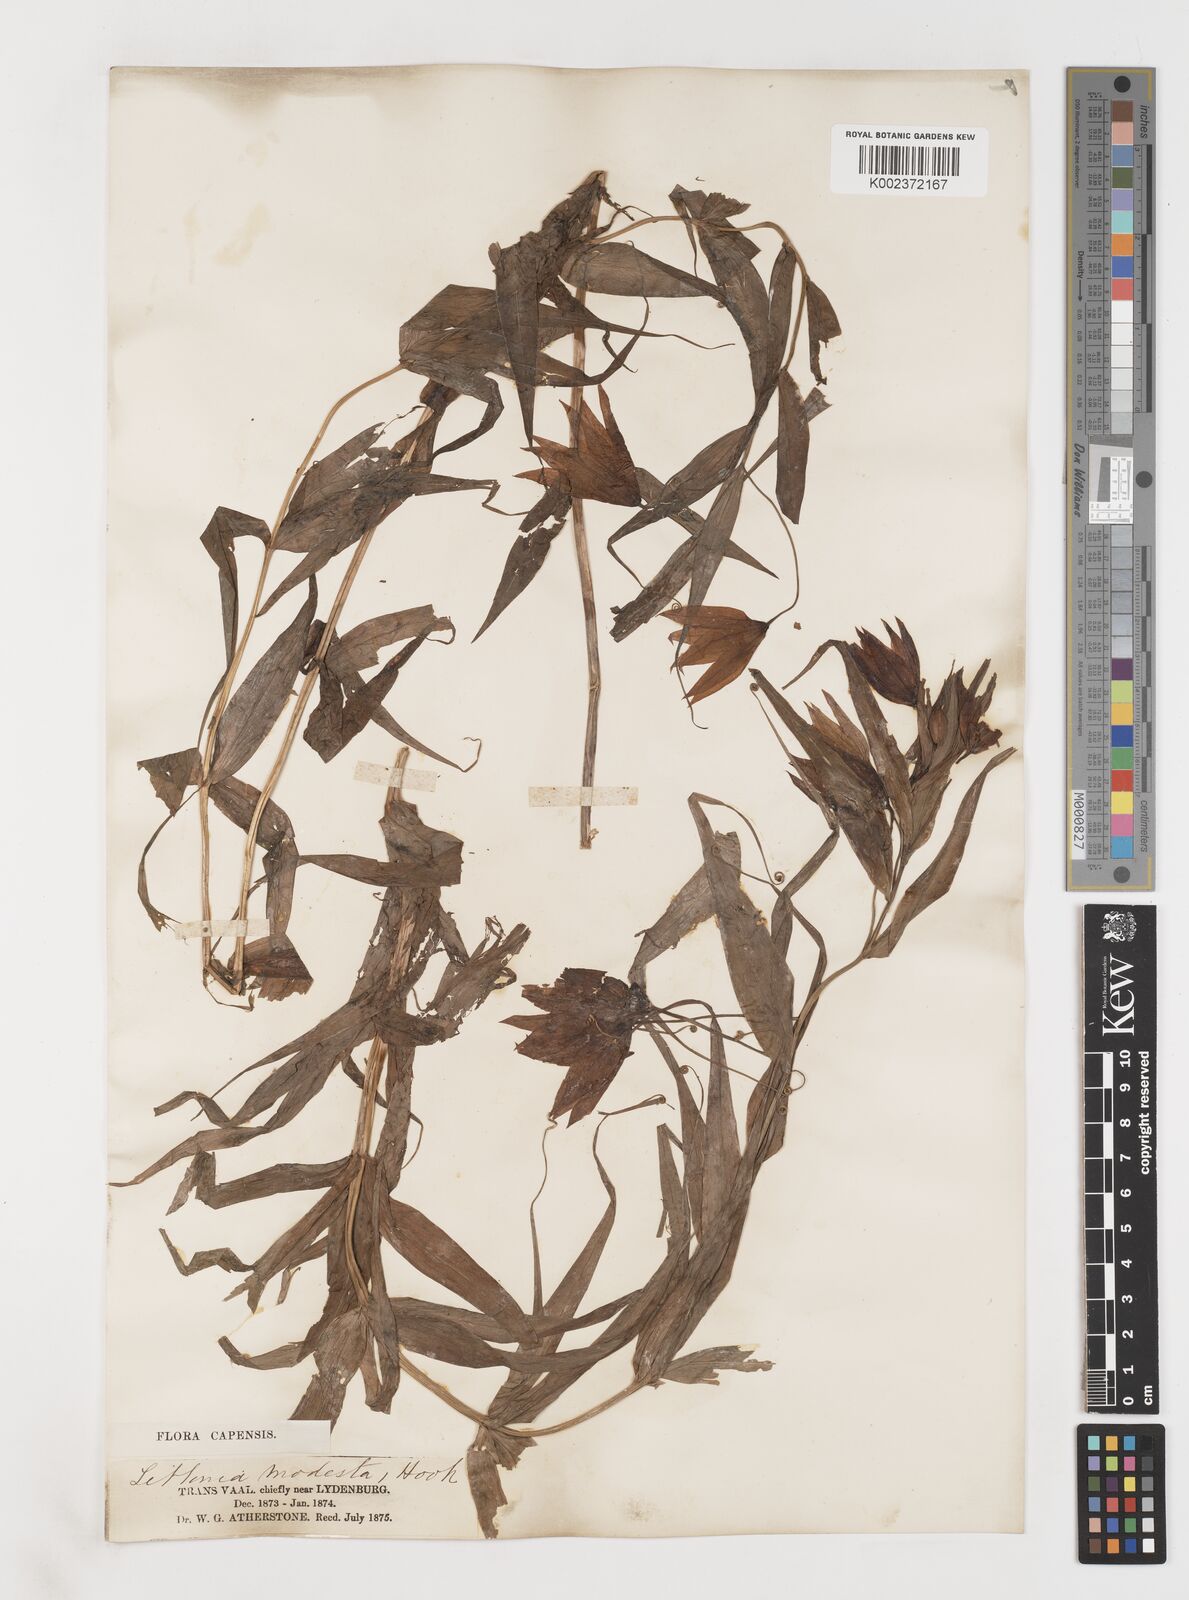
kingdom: Plantae
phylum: Tracheophyta
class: Liliopsida
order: Liliales
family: Colchicaceae
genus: Gloriosa
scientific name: Gloriosa modesta
